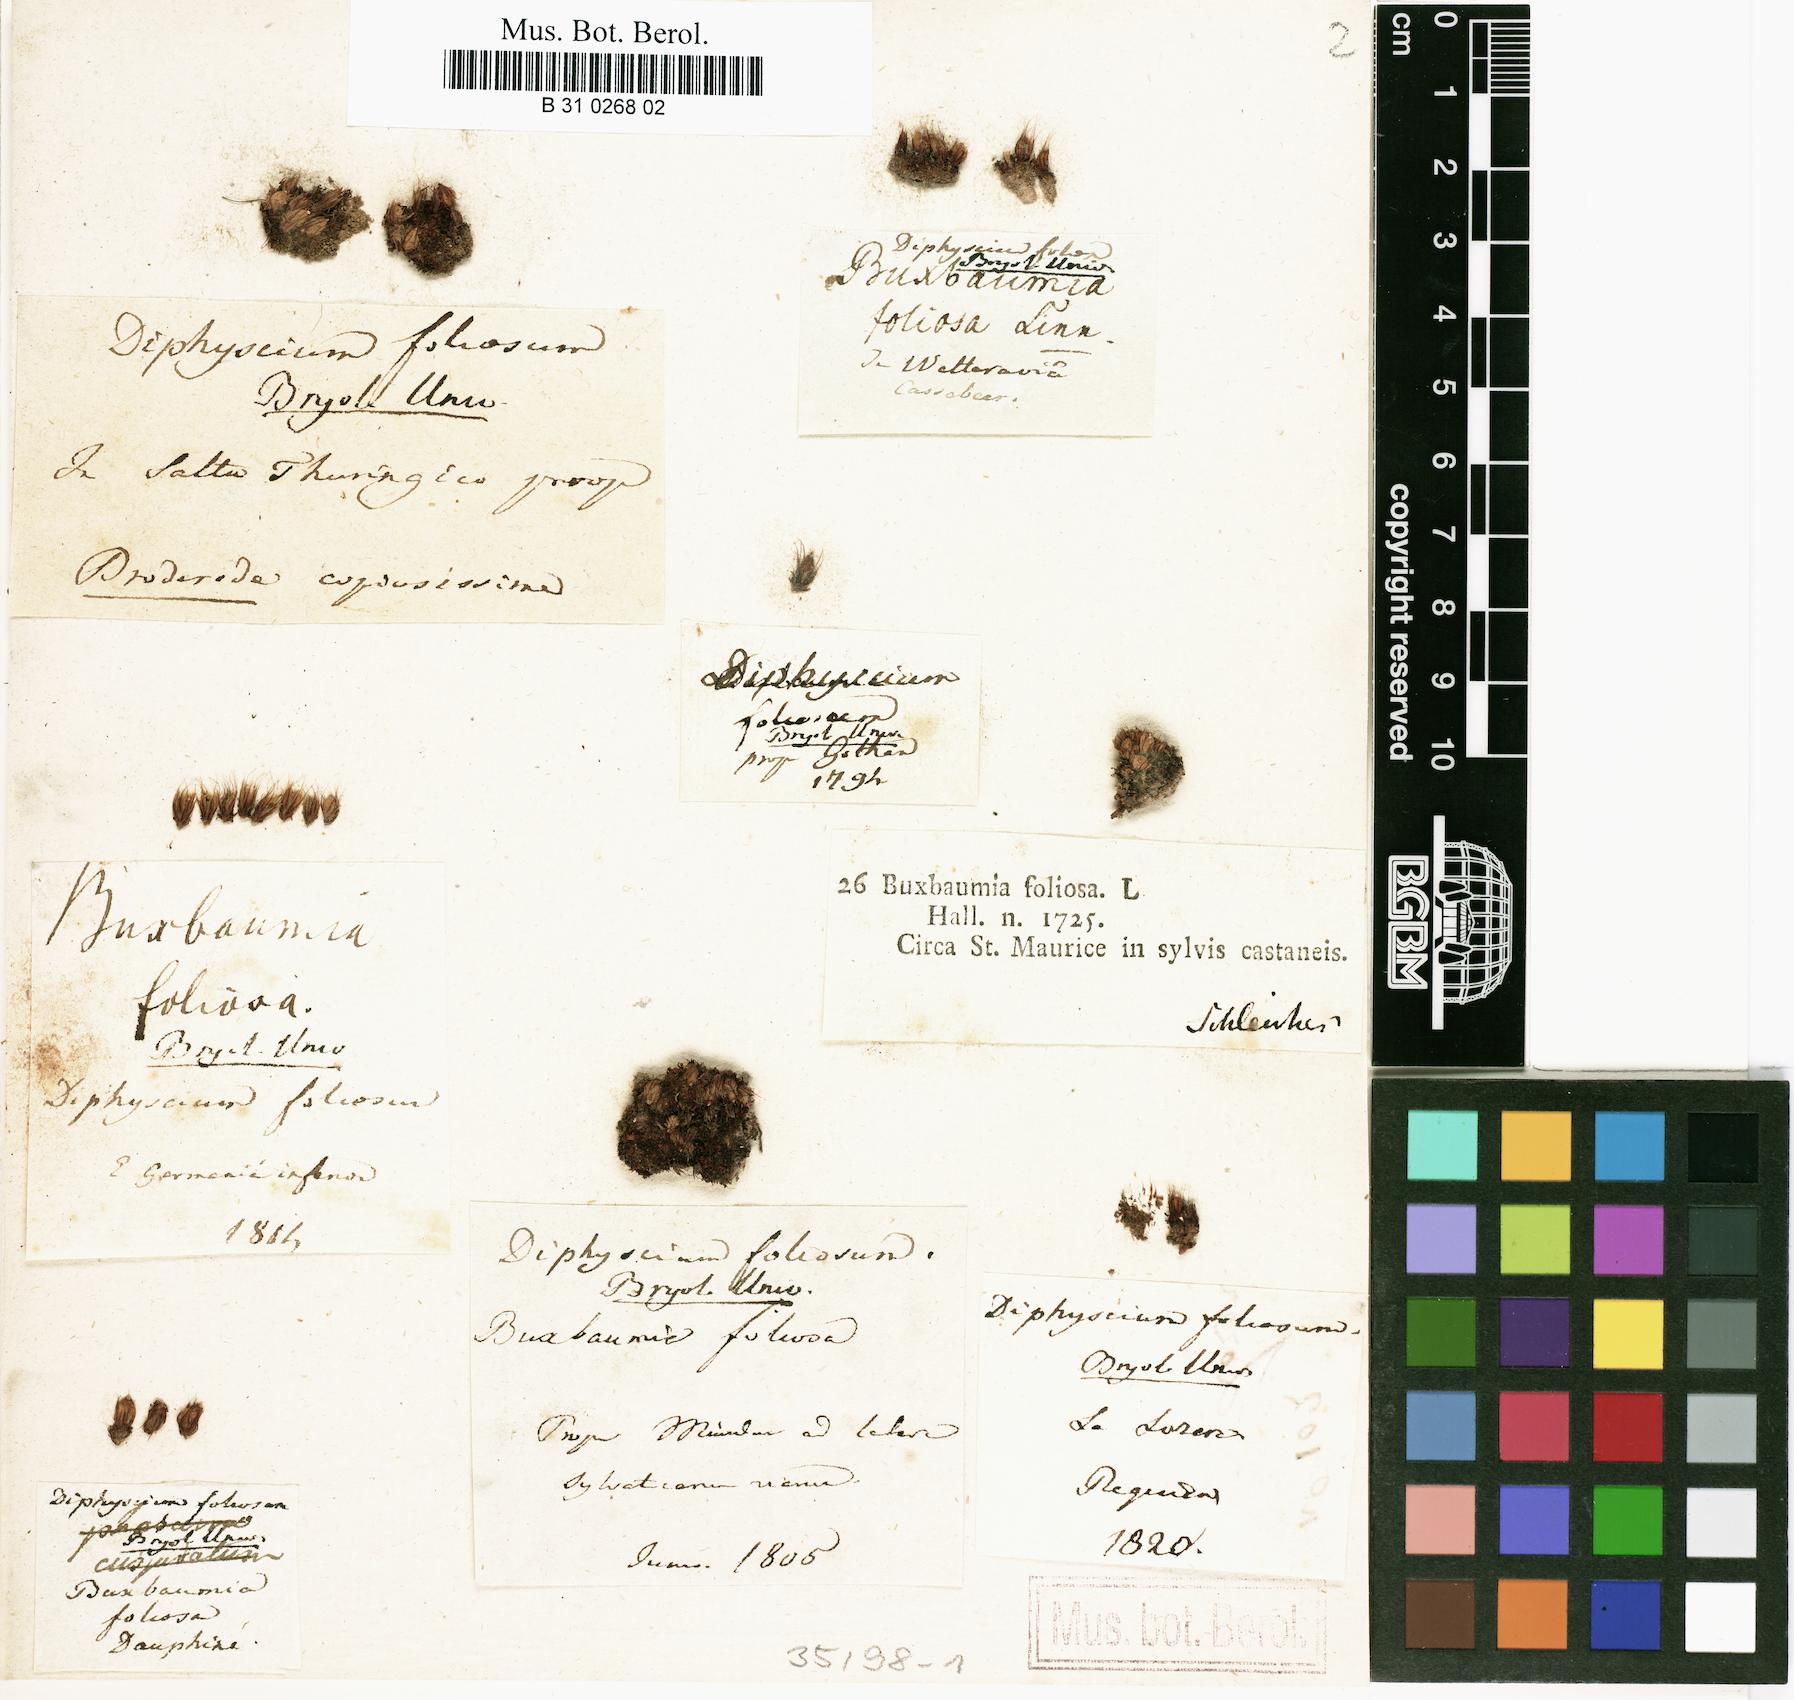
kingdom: Plantae
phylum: Bryophyta
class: Bryopsida
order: Diphysciales
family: Diphysciaceae
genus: Diphyscium
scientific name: Diphyscium foliosum
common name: Nut moss
